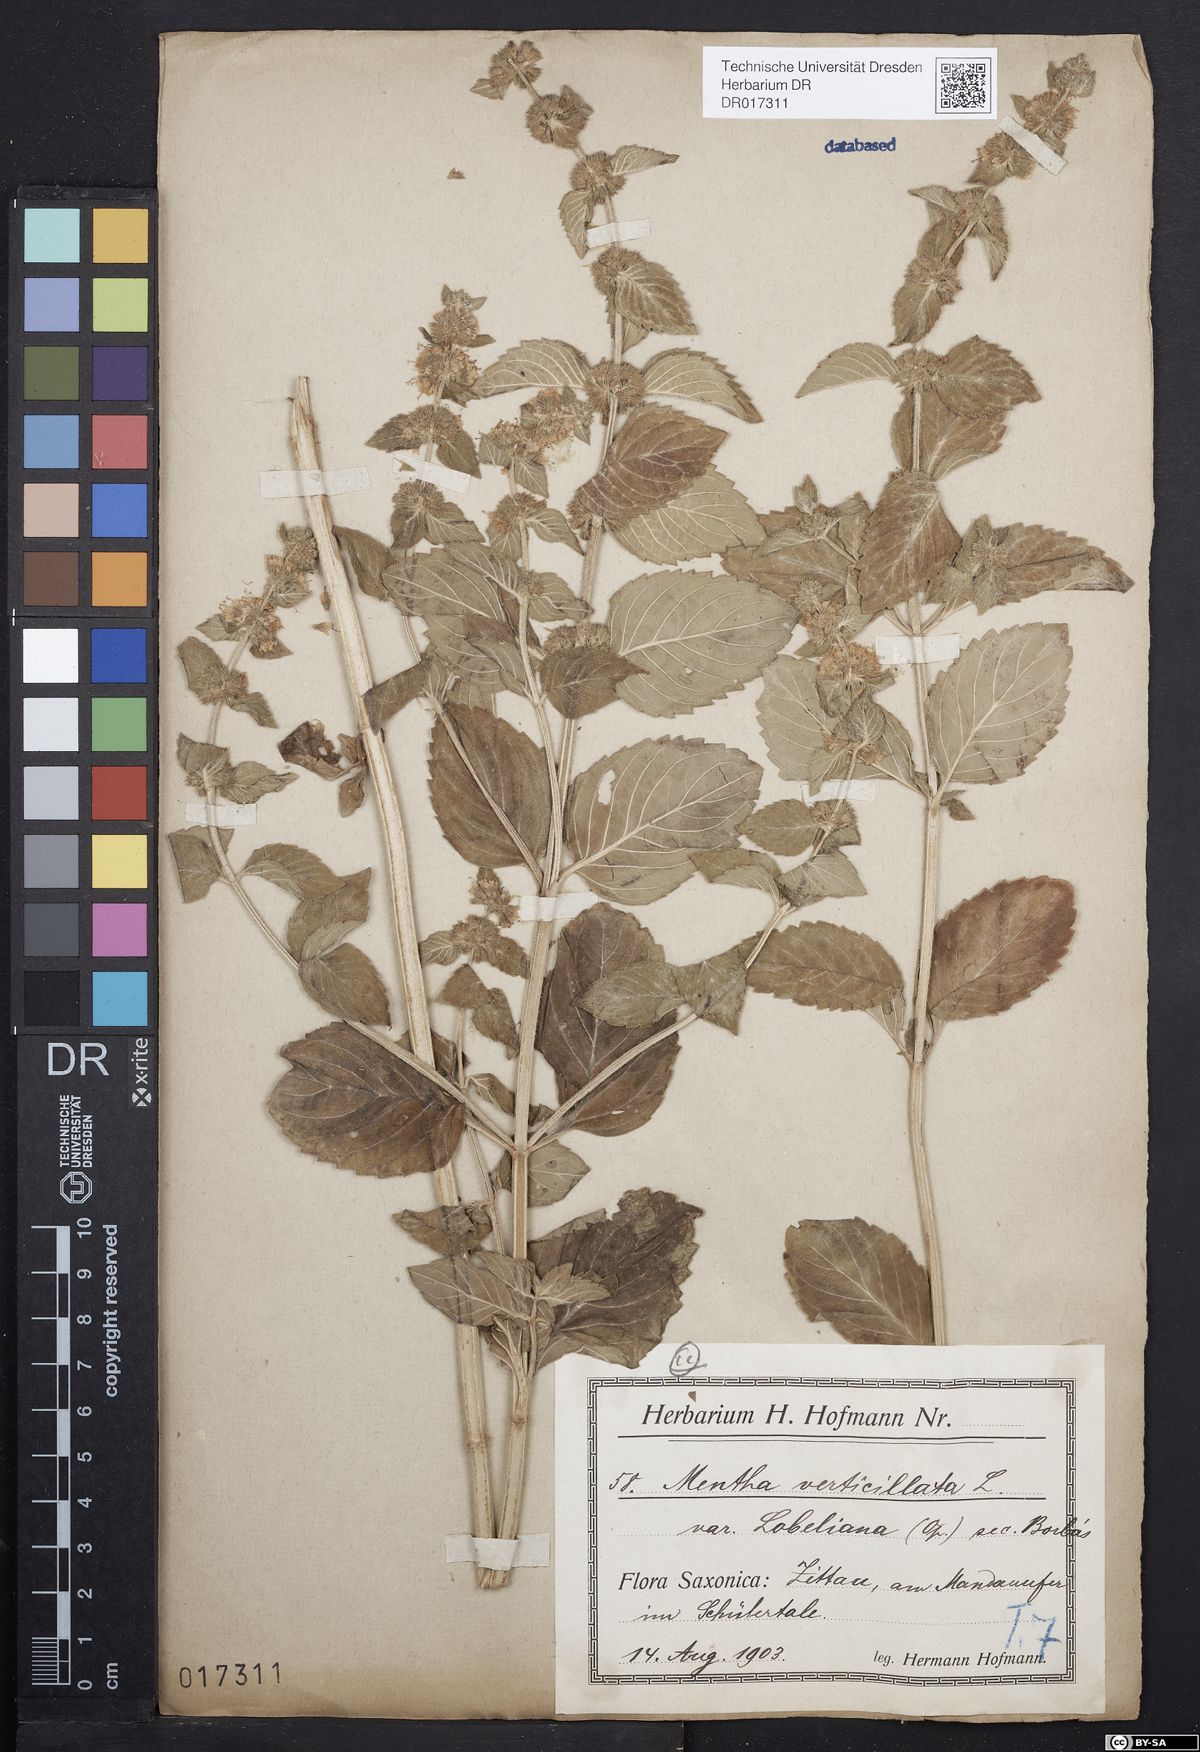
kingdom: Plantae
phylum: Tracheophyta
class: Magnoliopsida
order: Lamiales
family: Lamiaceae
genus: Mentha
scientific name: Mentha verticillata
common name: Mint
